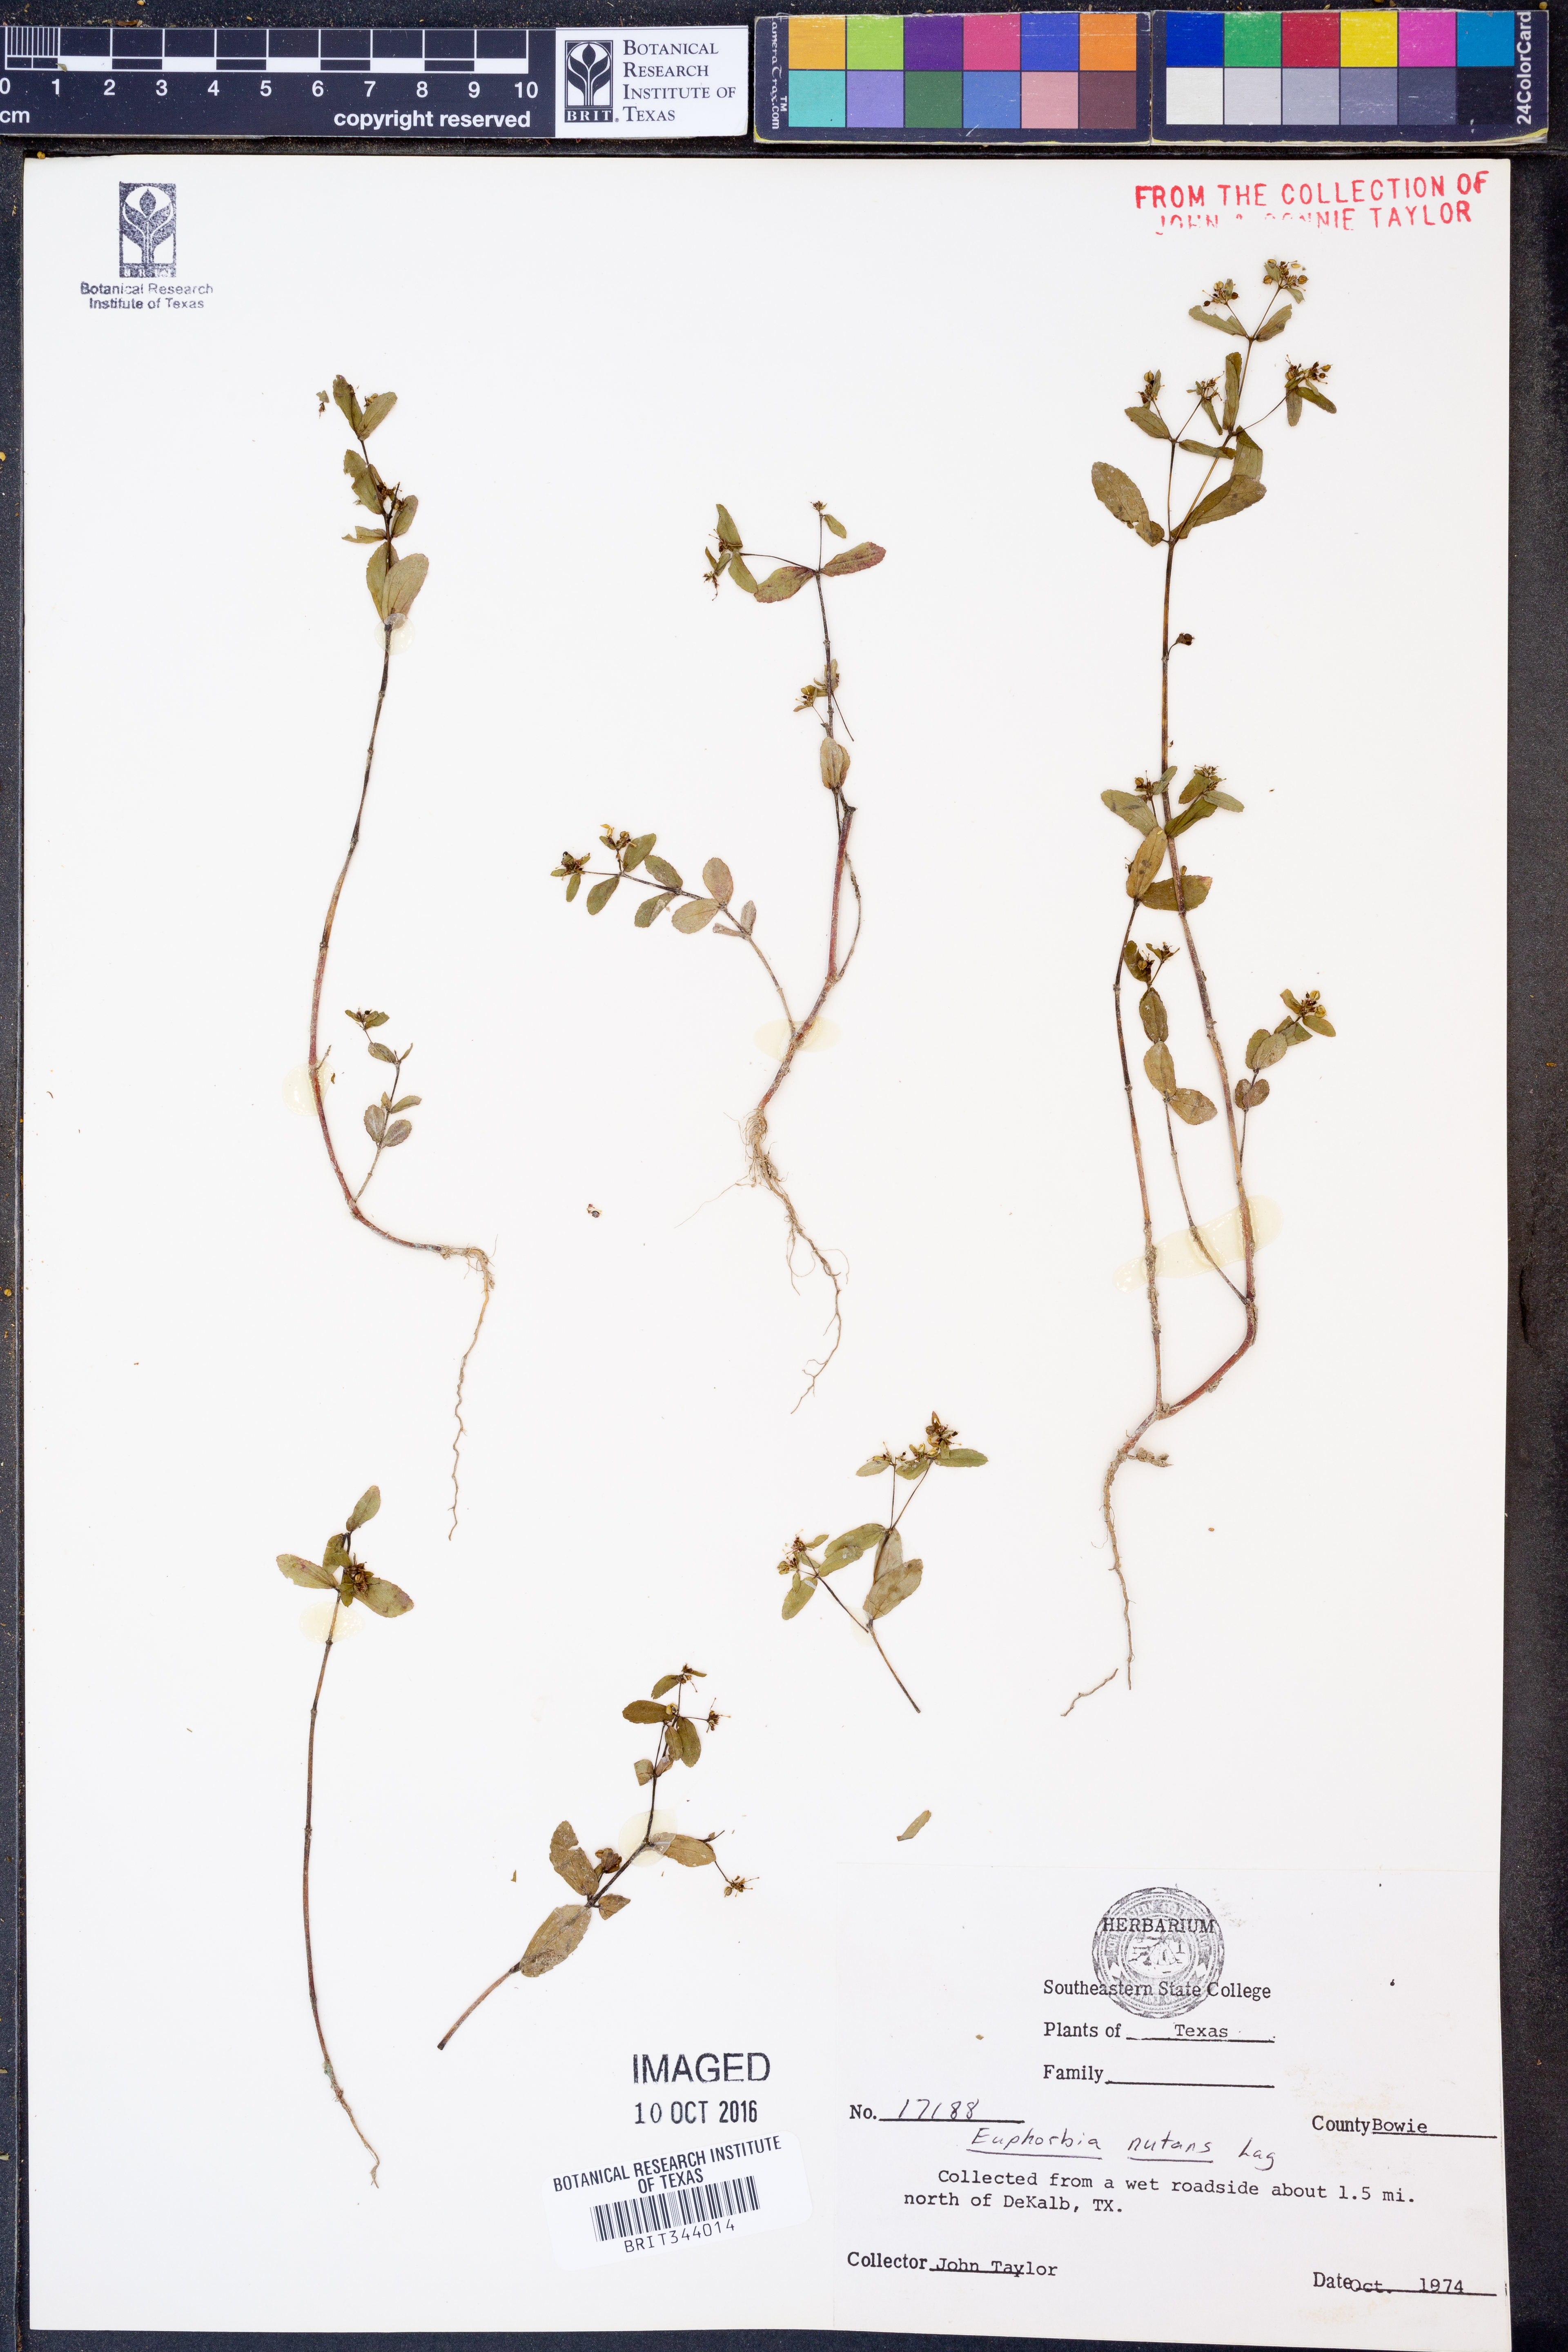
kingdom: Plantae
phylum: Tracheophyta
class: Magnoliopsida
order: Malpighiales
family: Euphorbiaceae
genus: Euphorbia
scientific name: Euphorbia nutans
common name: Eyebane
